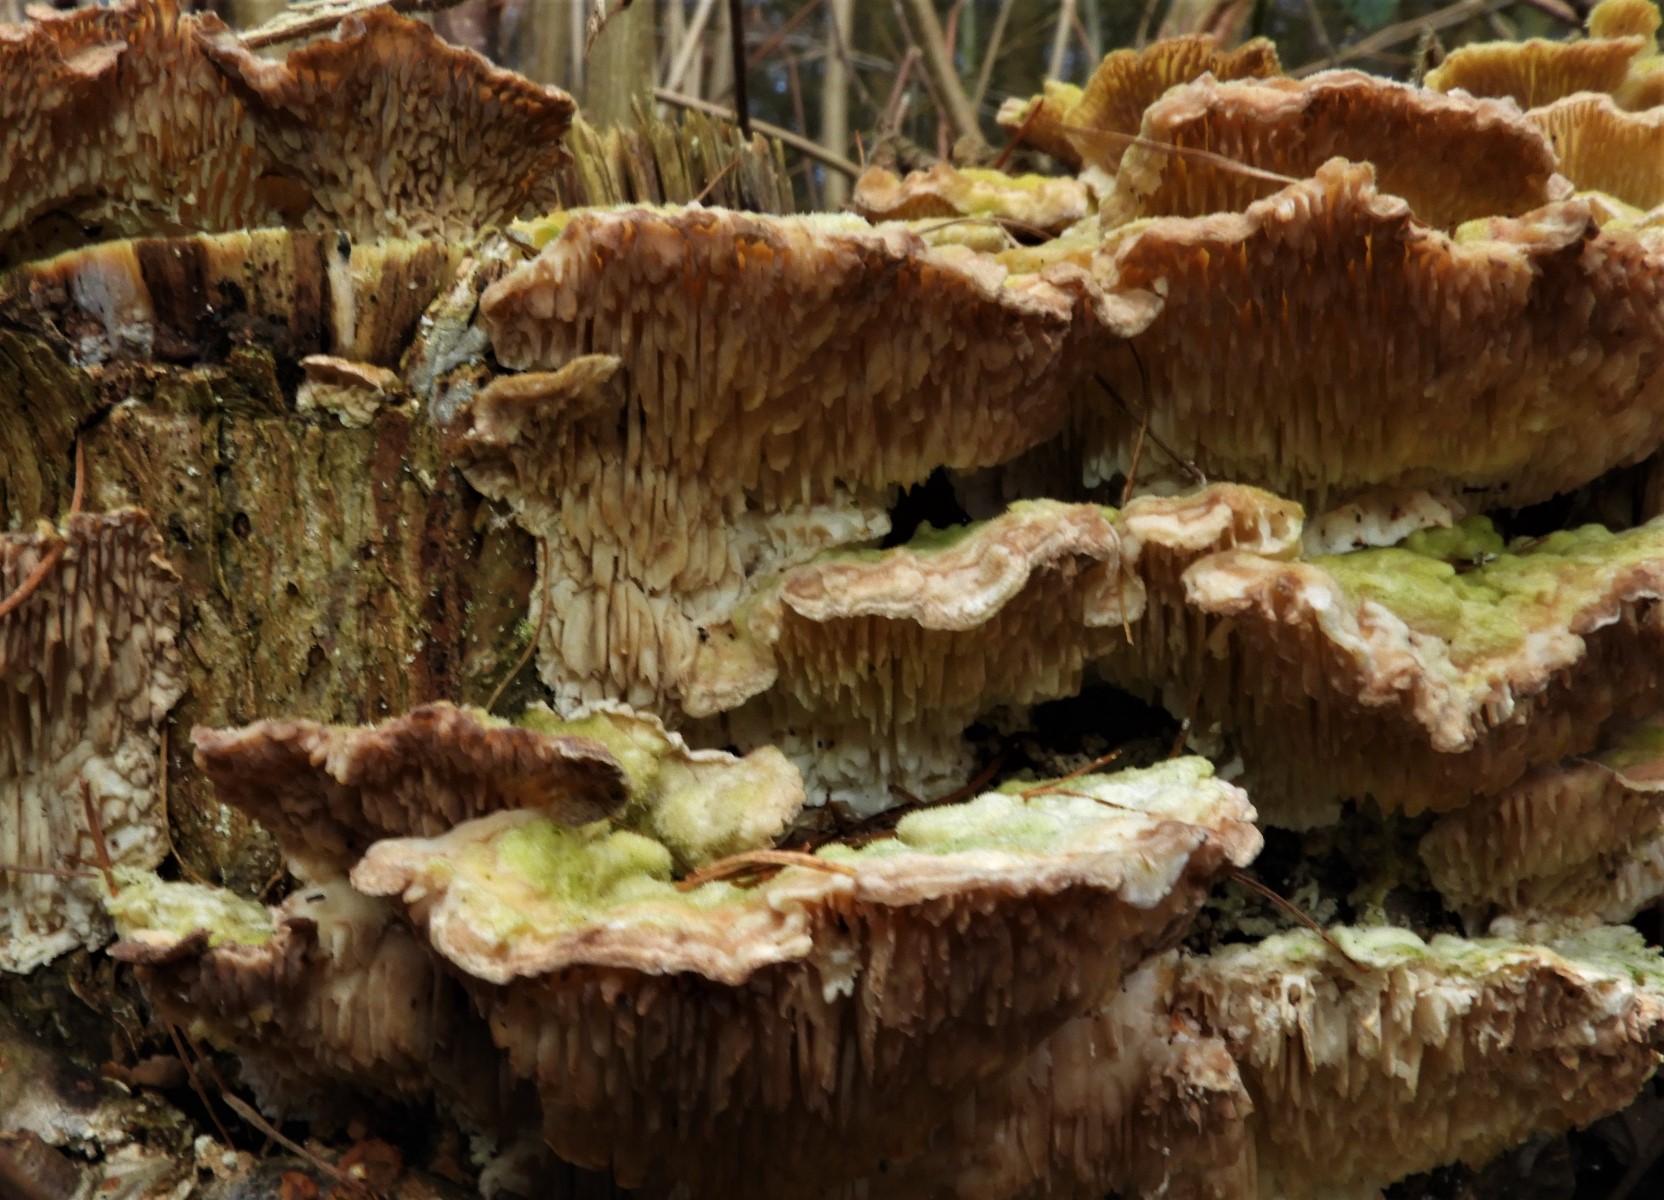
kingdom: Fungi
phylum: Basidiomycota
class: Agaricomycetes
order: Polyporales
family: Polyporaceae
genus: Lenzites
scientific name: Lenzites betulinus
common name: birke-læderporesvamp
